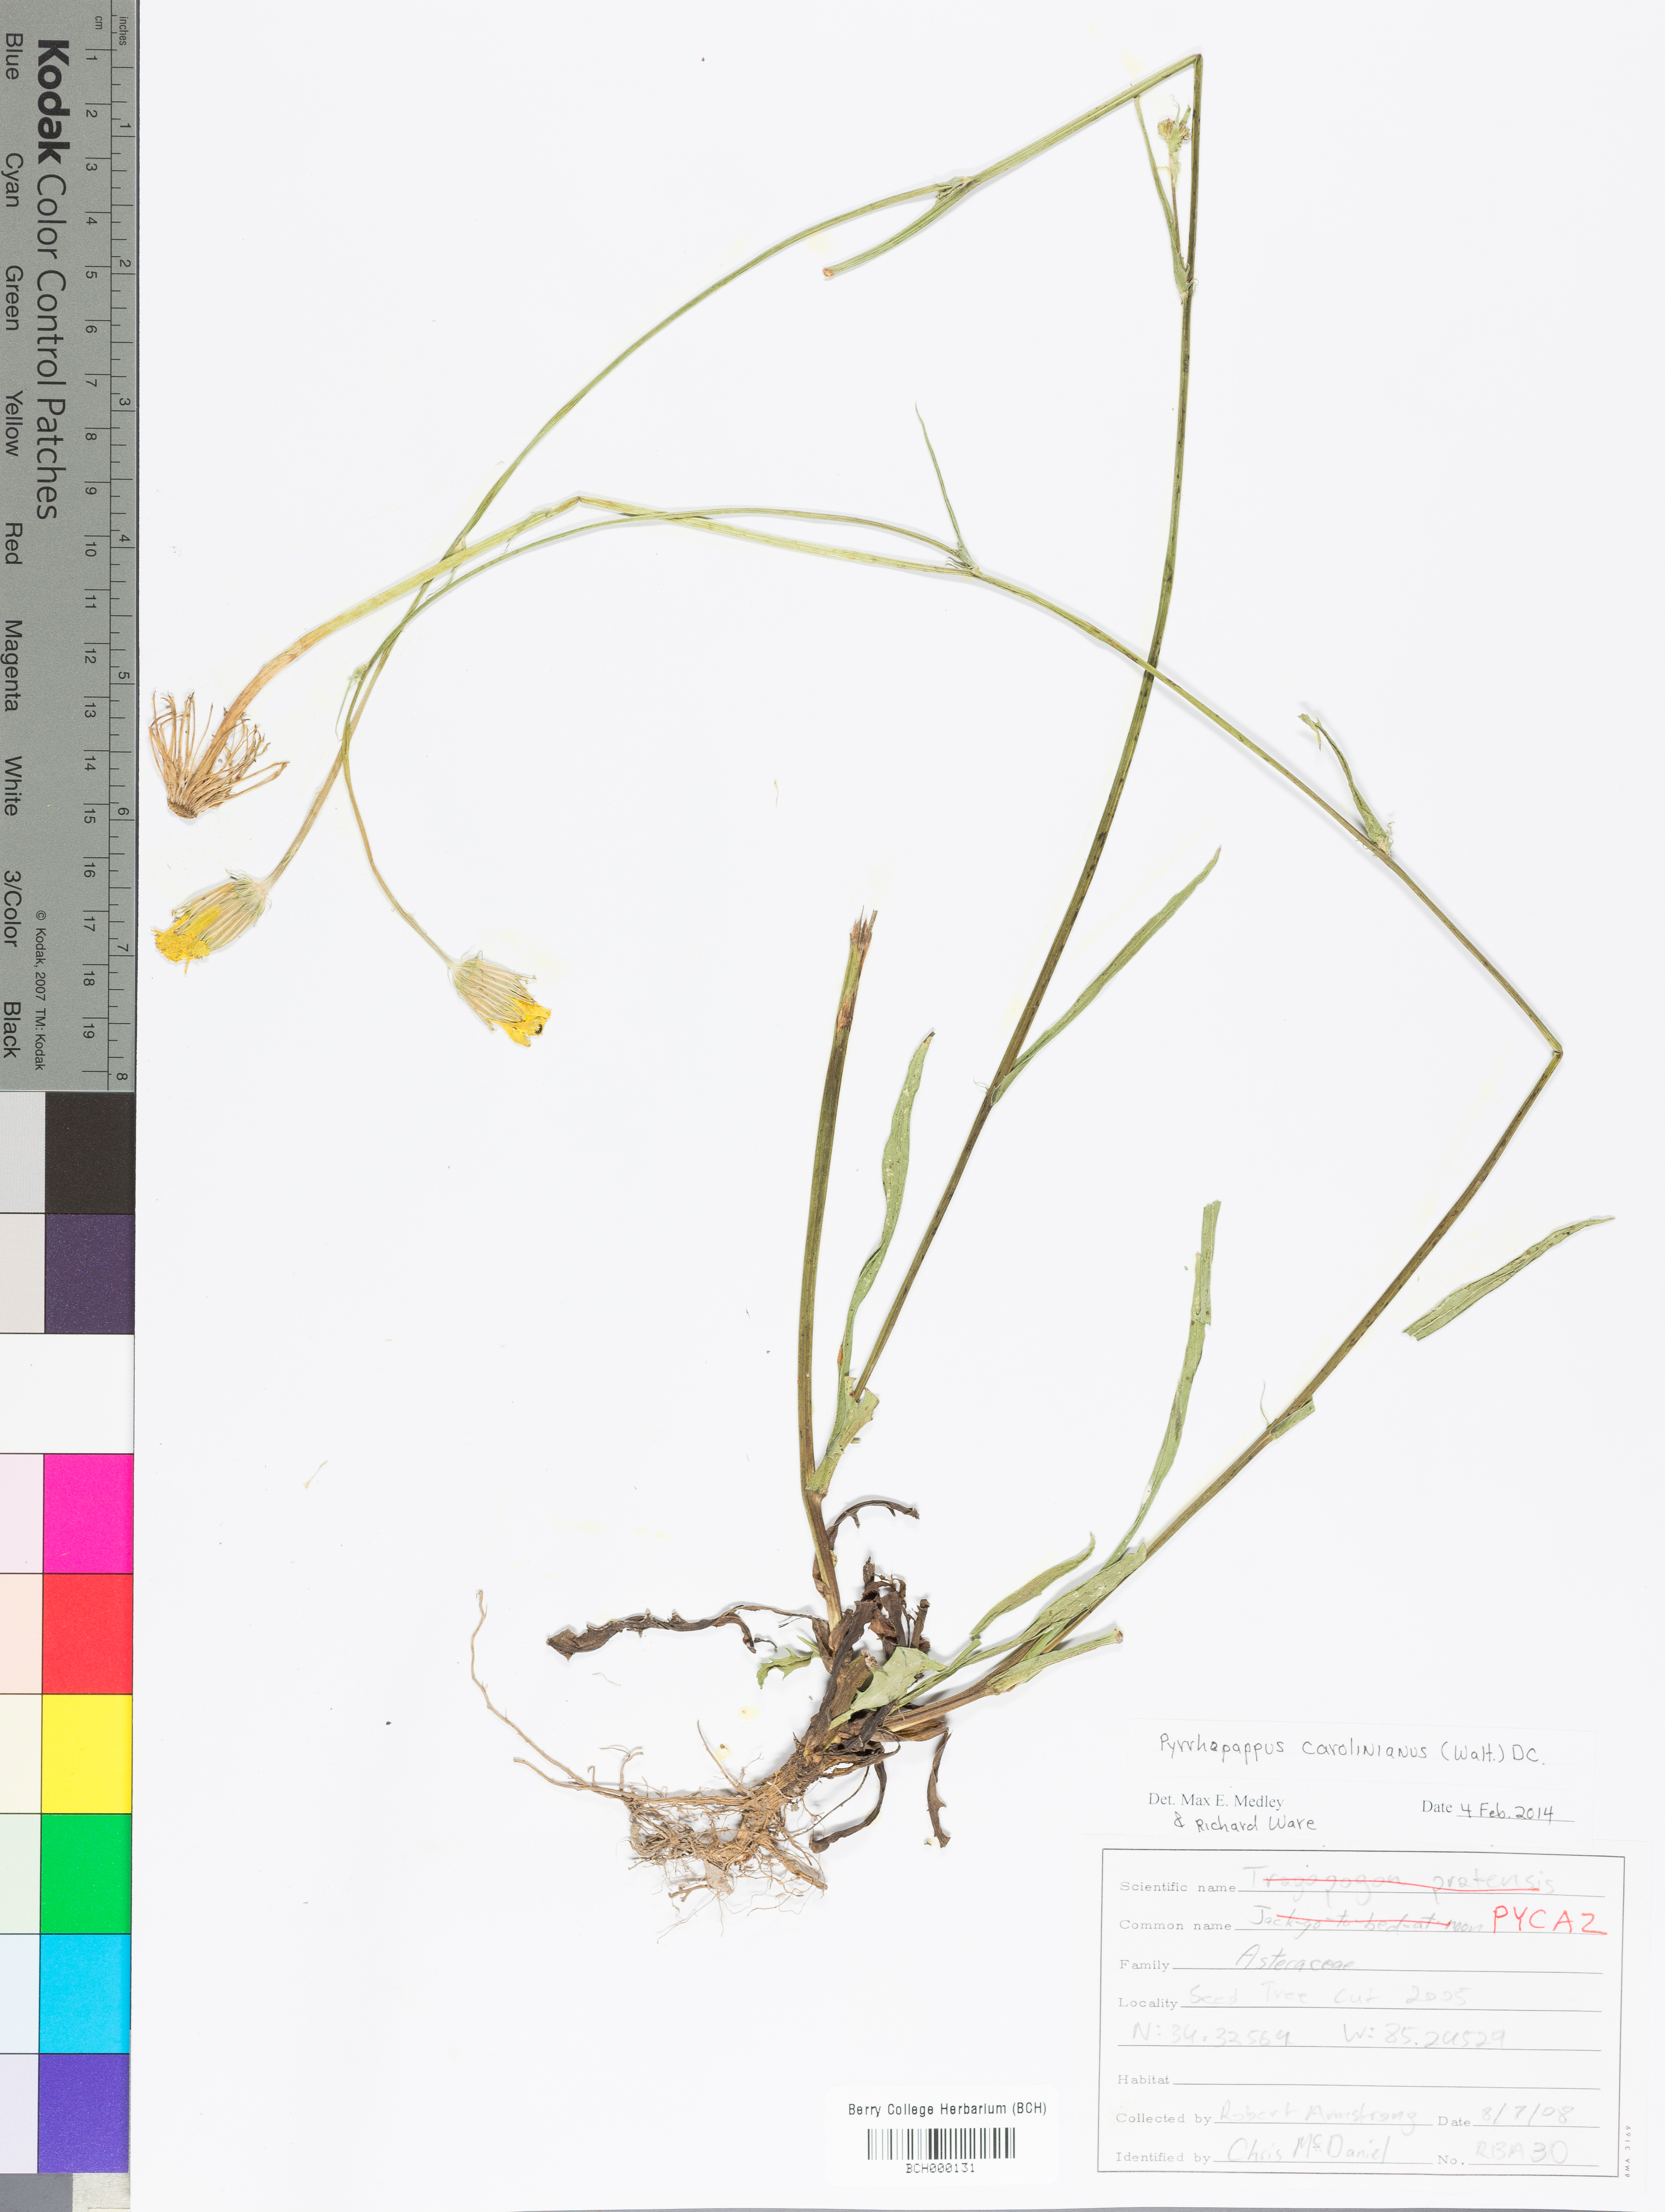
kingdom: Plantae
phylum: Tracheophyta
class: Magnoliopsida
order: Asterales
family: Asteraceae
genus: Pyrrhopappus
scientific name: Pyrrhopappus carolinianus
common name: Carolina desert-chicory
